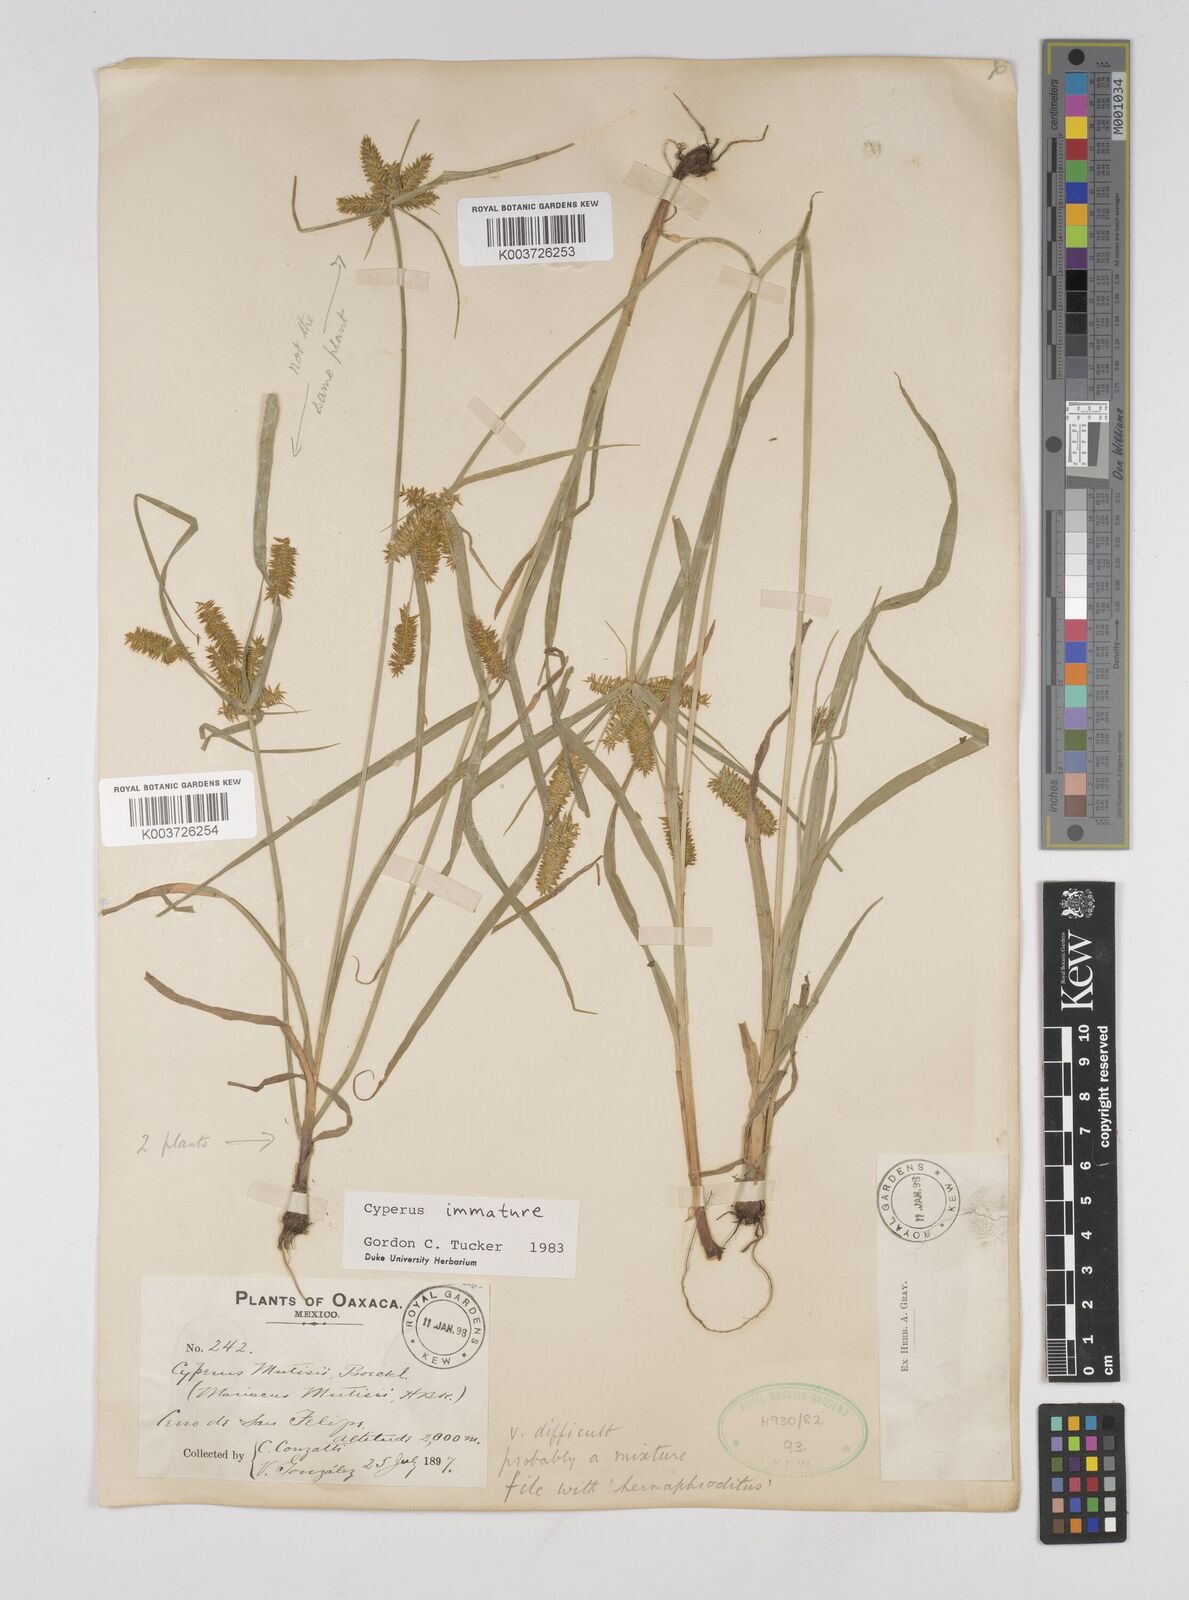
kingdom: Plantae
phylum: Tracheophyta
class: Liliopsida
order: Poales
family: Cyperaceae
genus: Cyperus
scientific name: Cyperus hermaphroditus
